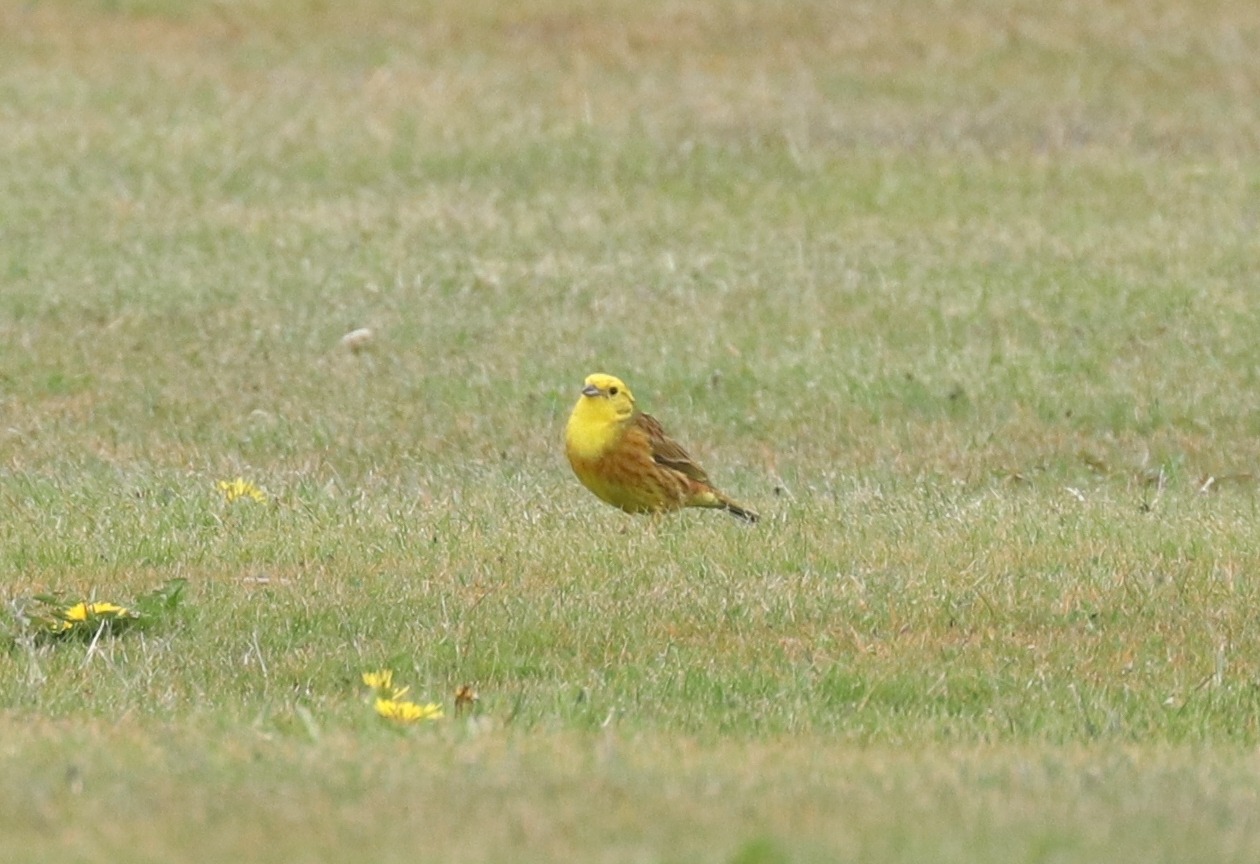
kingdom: Animalia
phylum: Chordata
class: Aves
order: Passeriformes
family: Emberizidae
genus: Emberiza
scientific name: Emberiza citrinella
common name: Gulspurv
